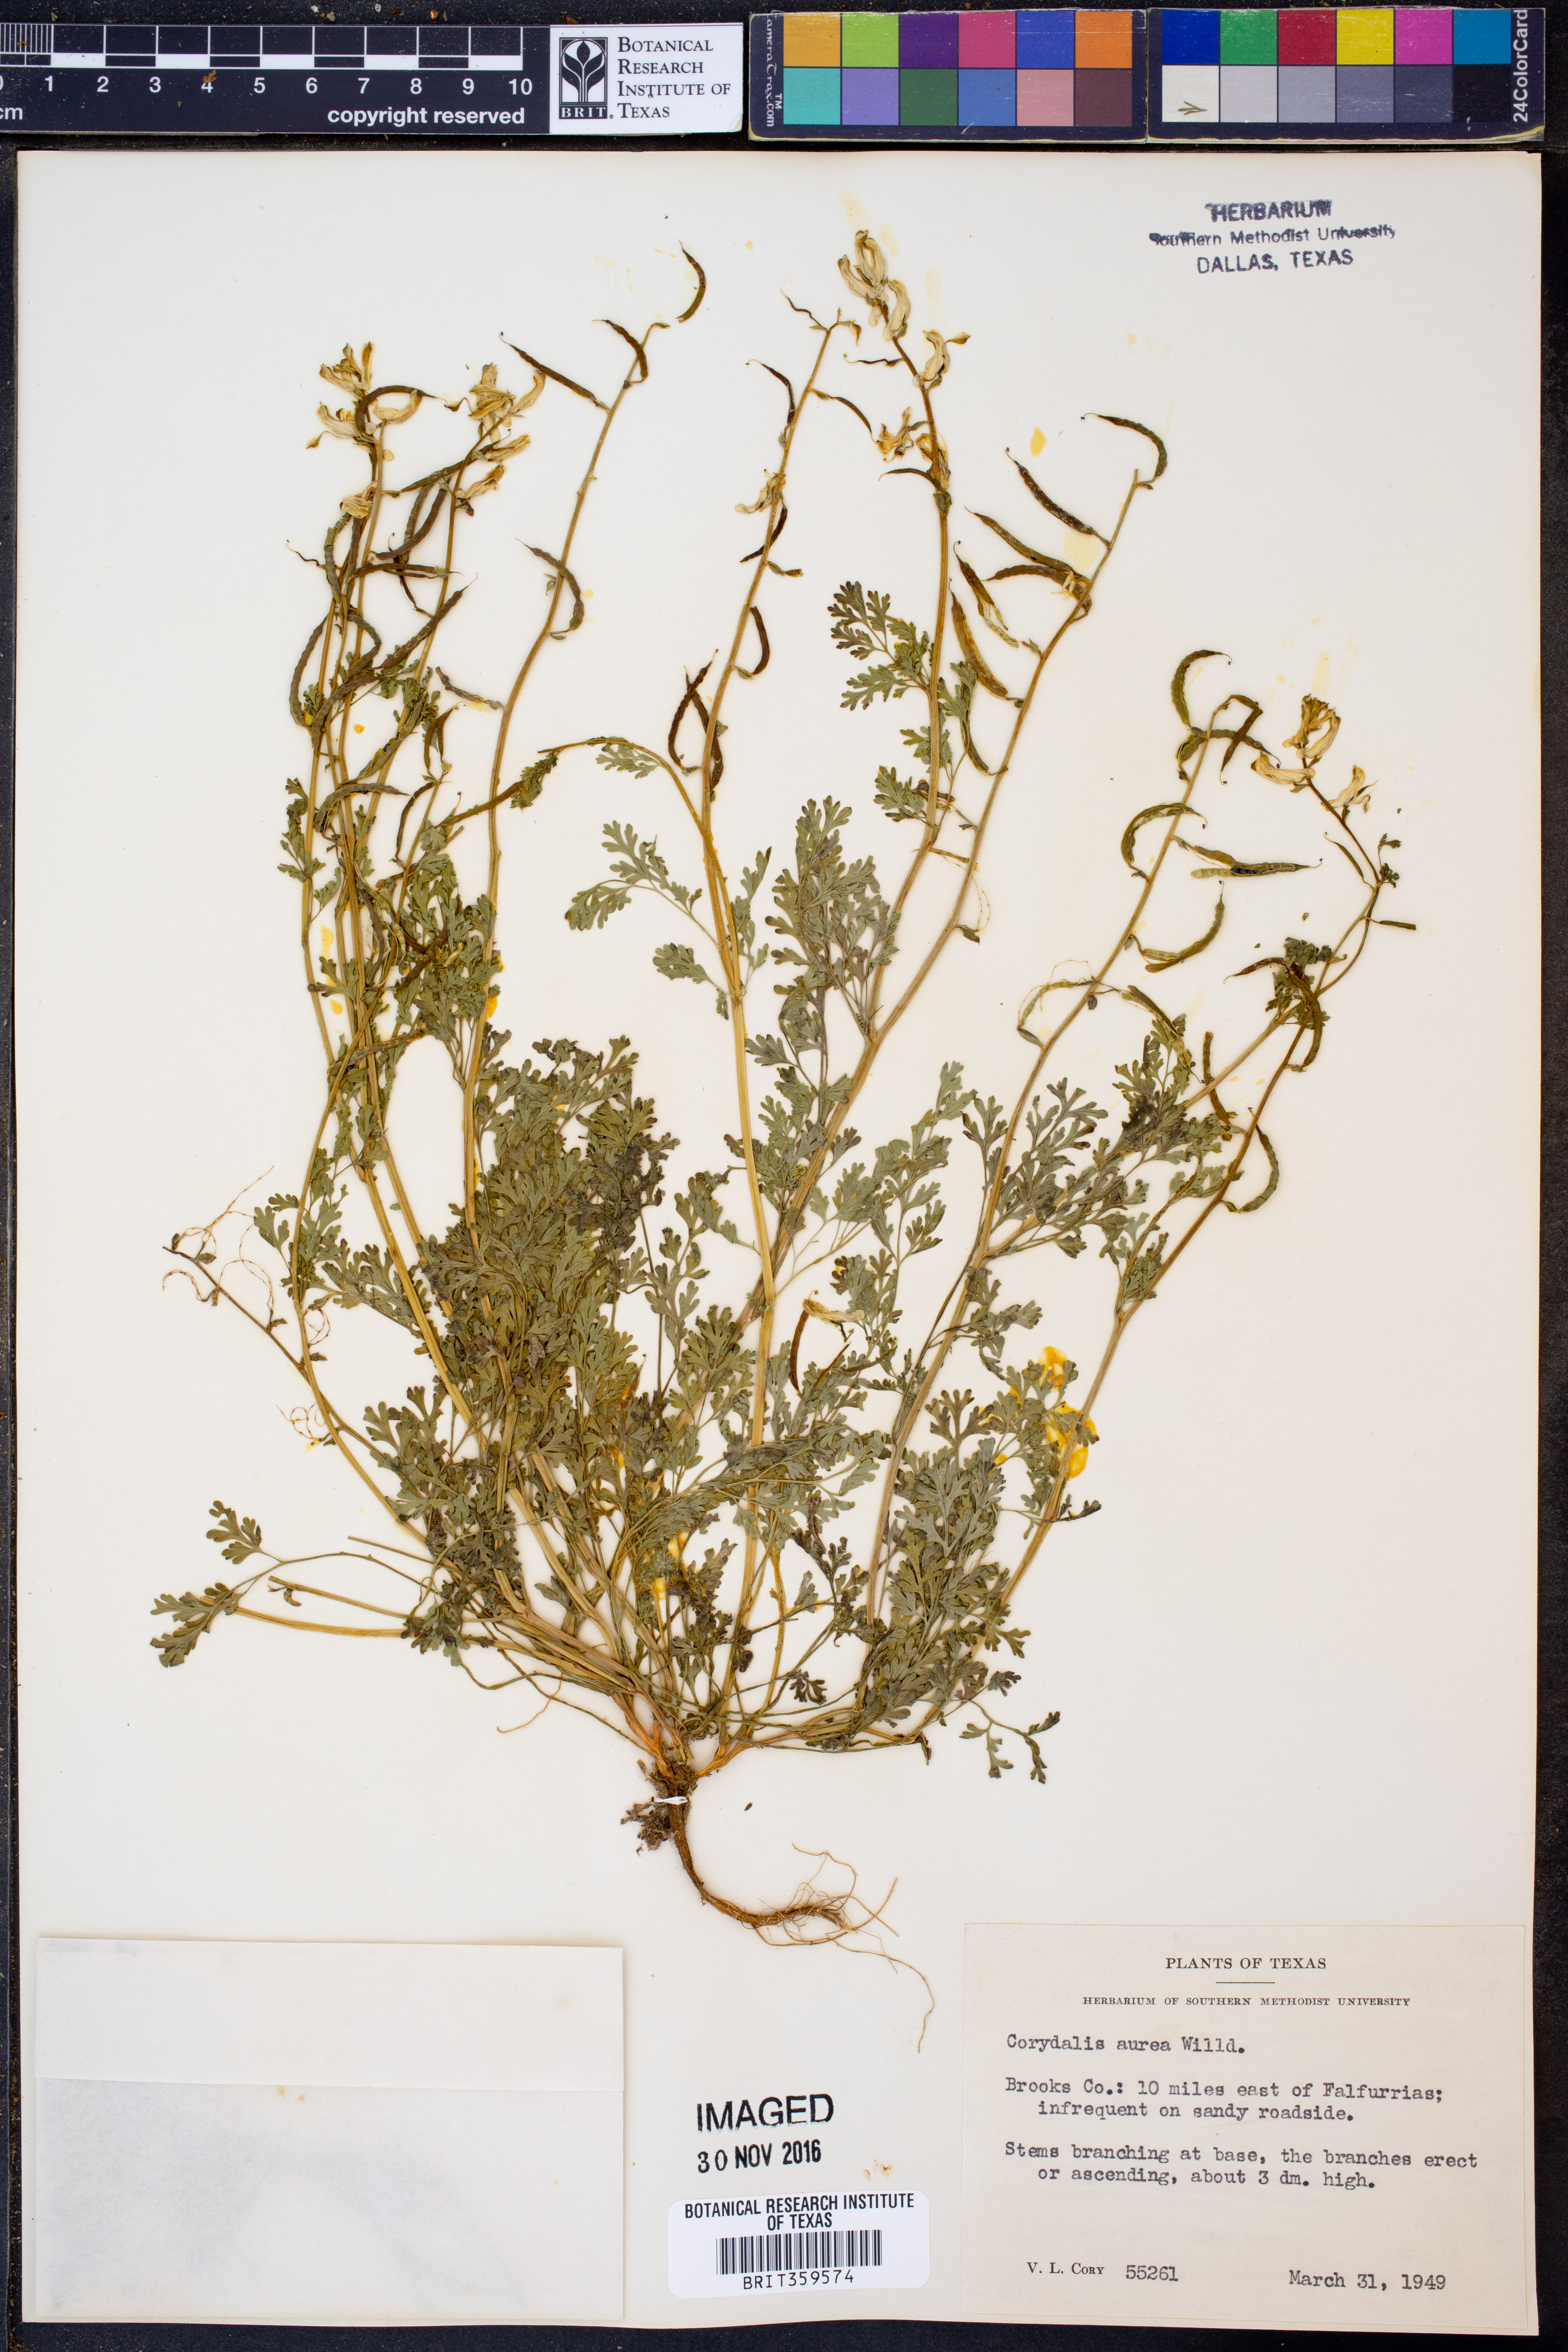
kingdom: Plantae
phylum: Tracheophyta
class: Magnoliopsida
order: Ranunculales
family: Papaveraceae
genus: Corydalis
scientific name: Corydalis aurea
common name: Golden corydalis
